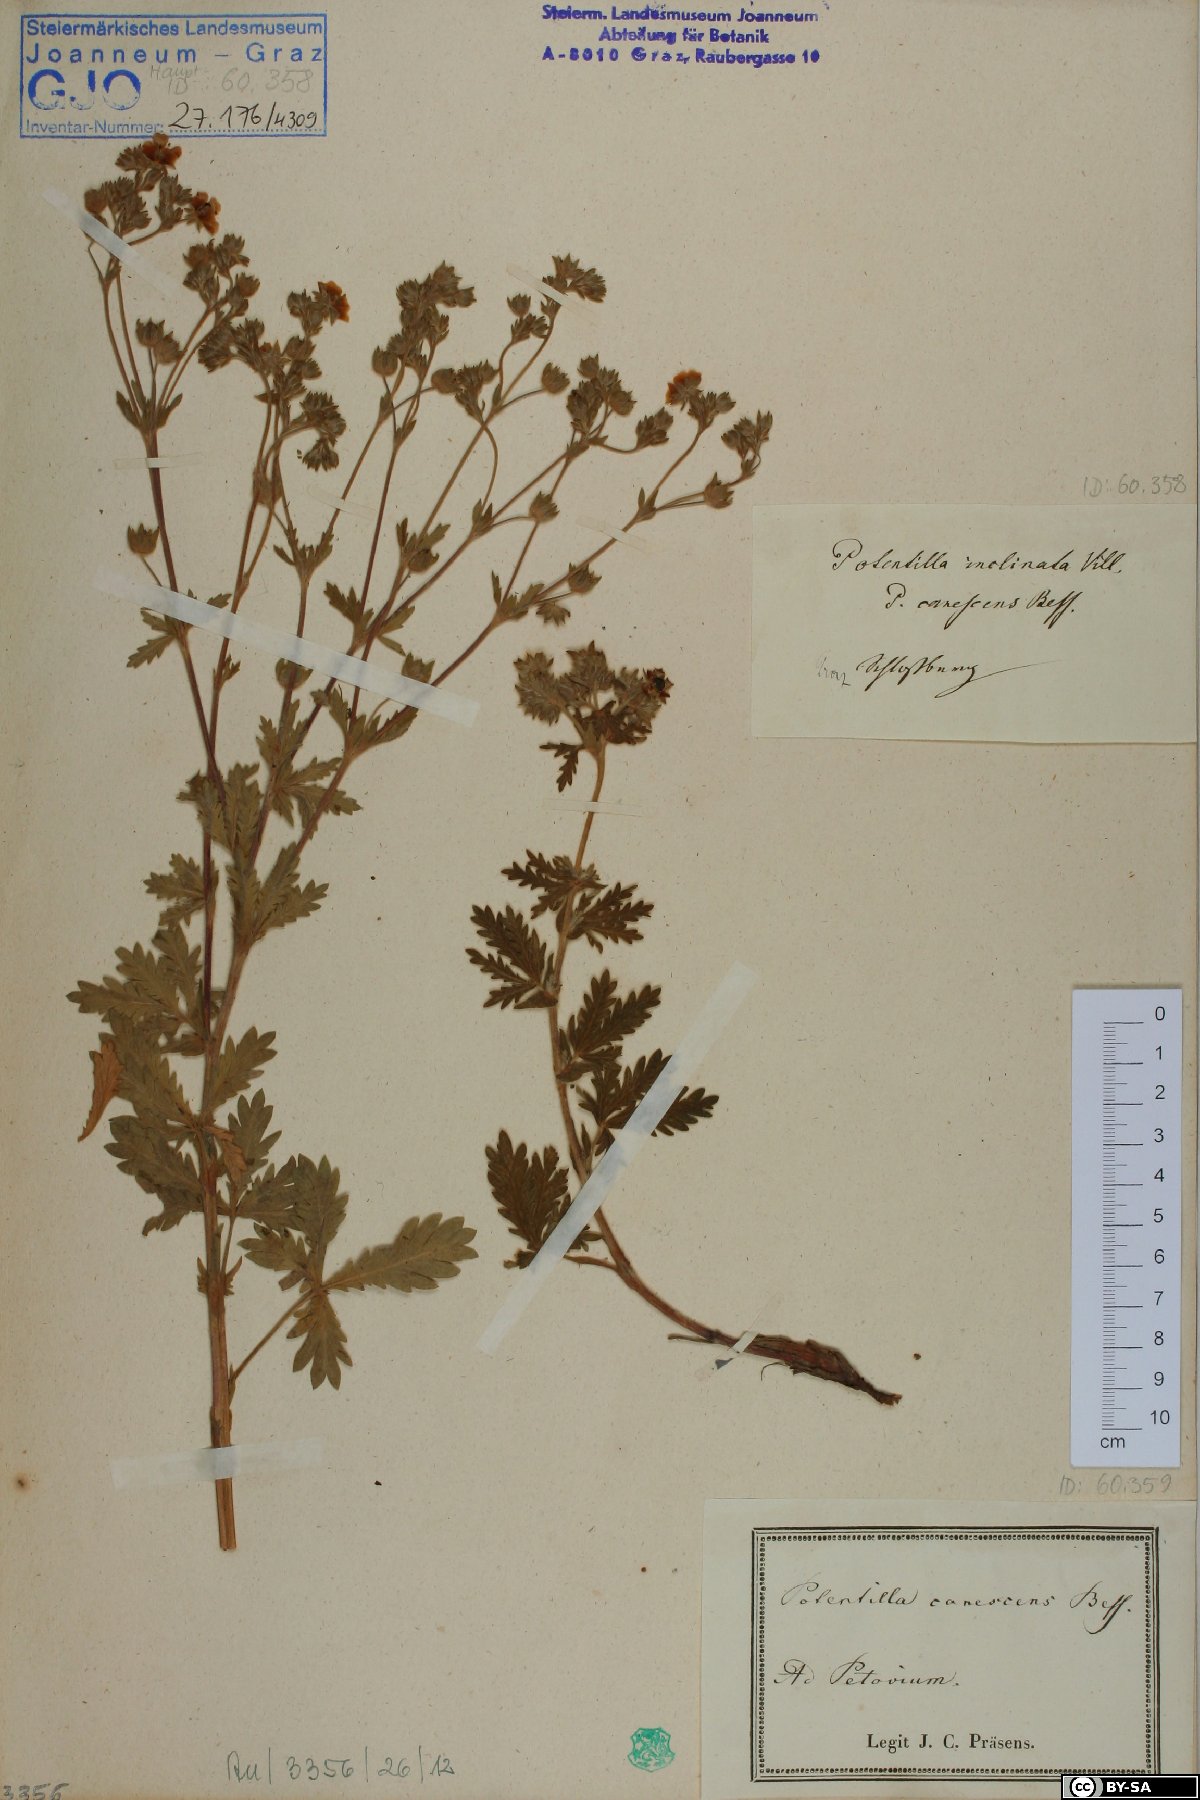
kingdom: Plantae
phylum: Tracheophyta
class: Magnoliopsida
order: Rosales
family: Rosaceae
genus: Potentilla
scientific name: Potentilla inclinata
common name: Grey cinquefoil
